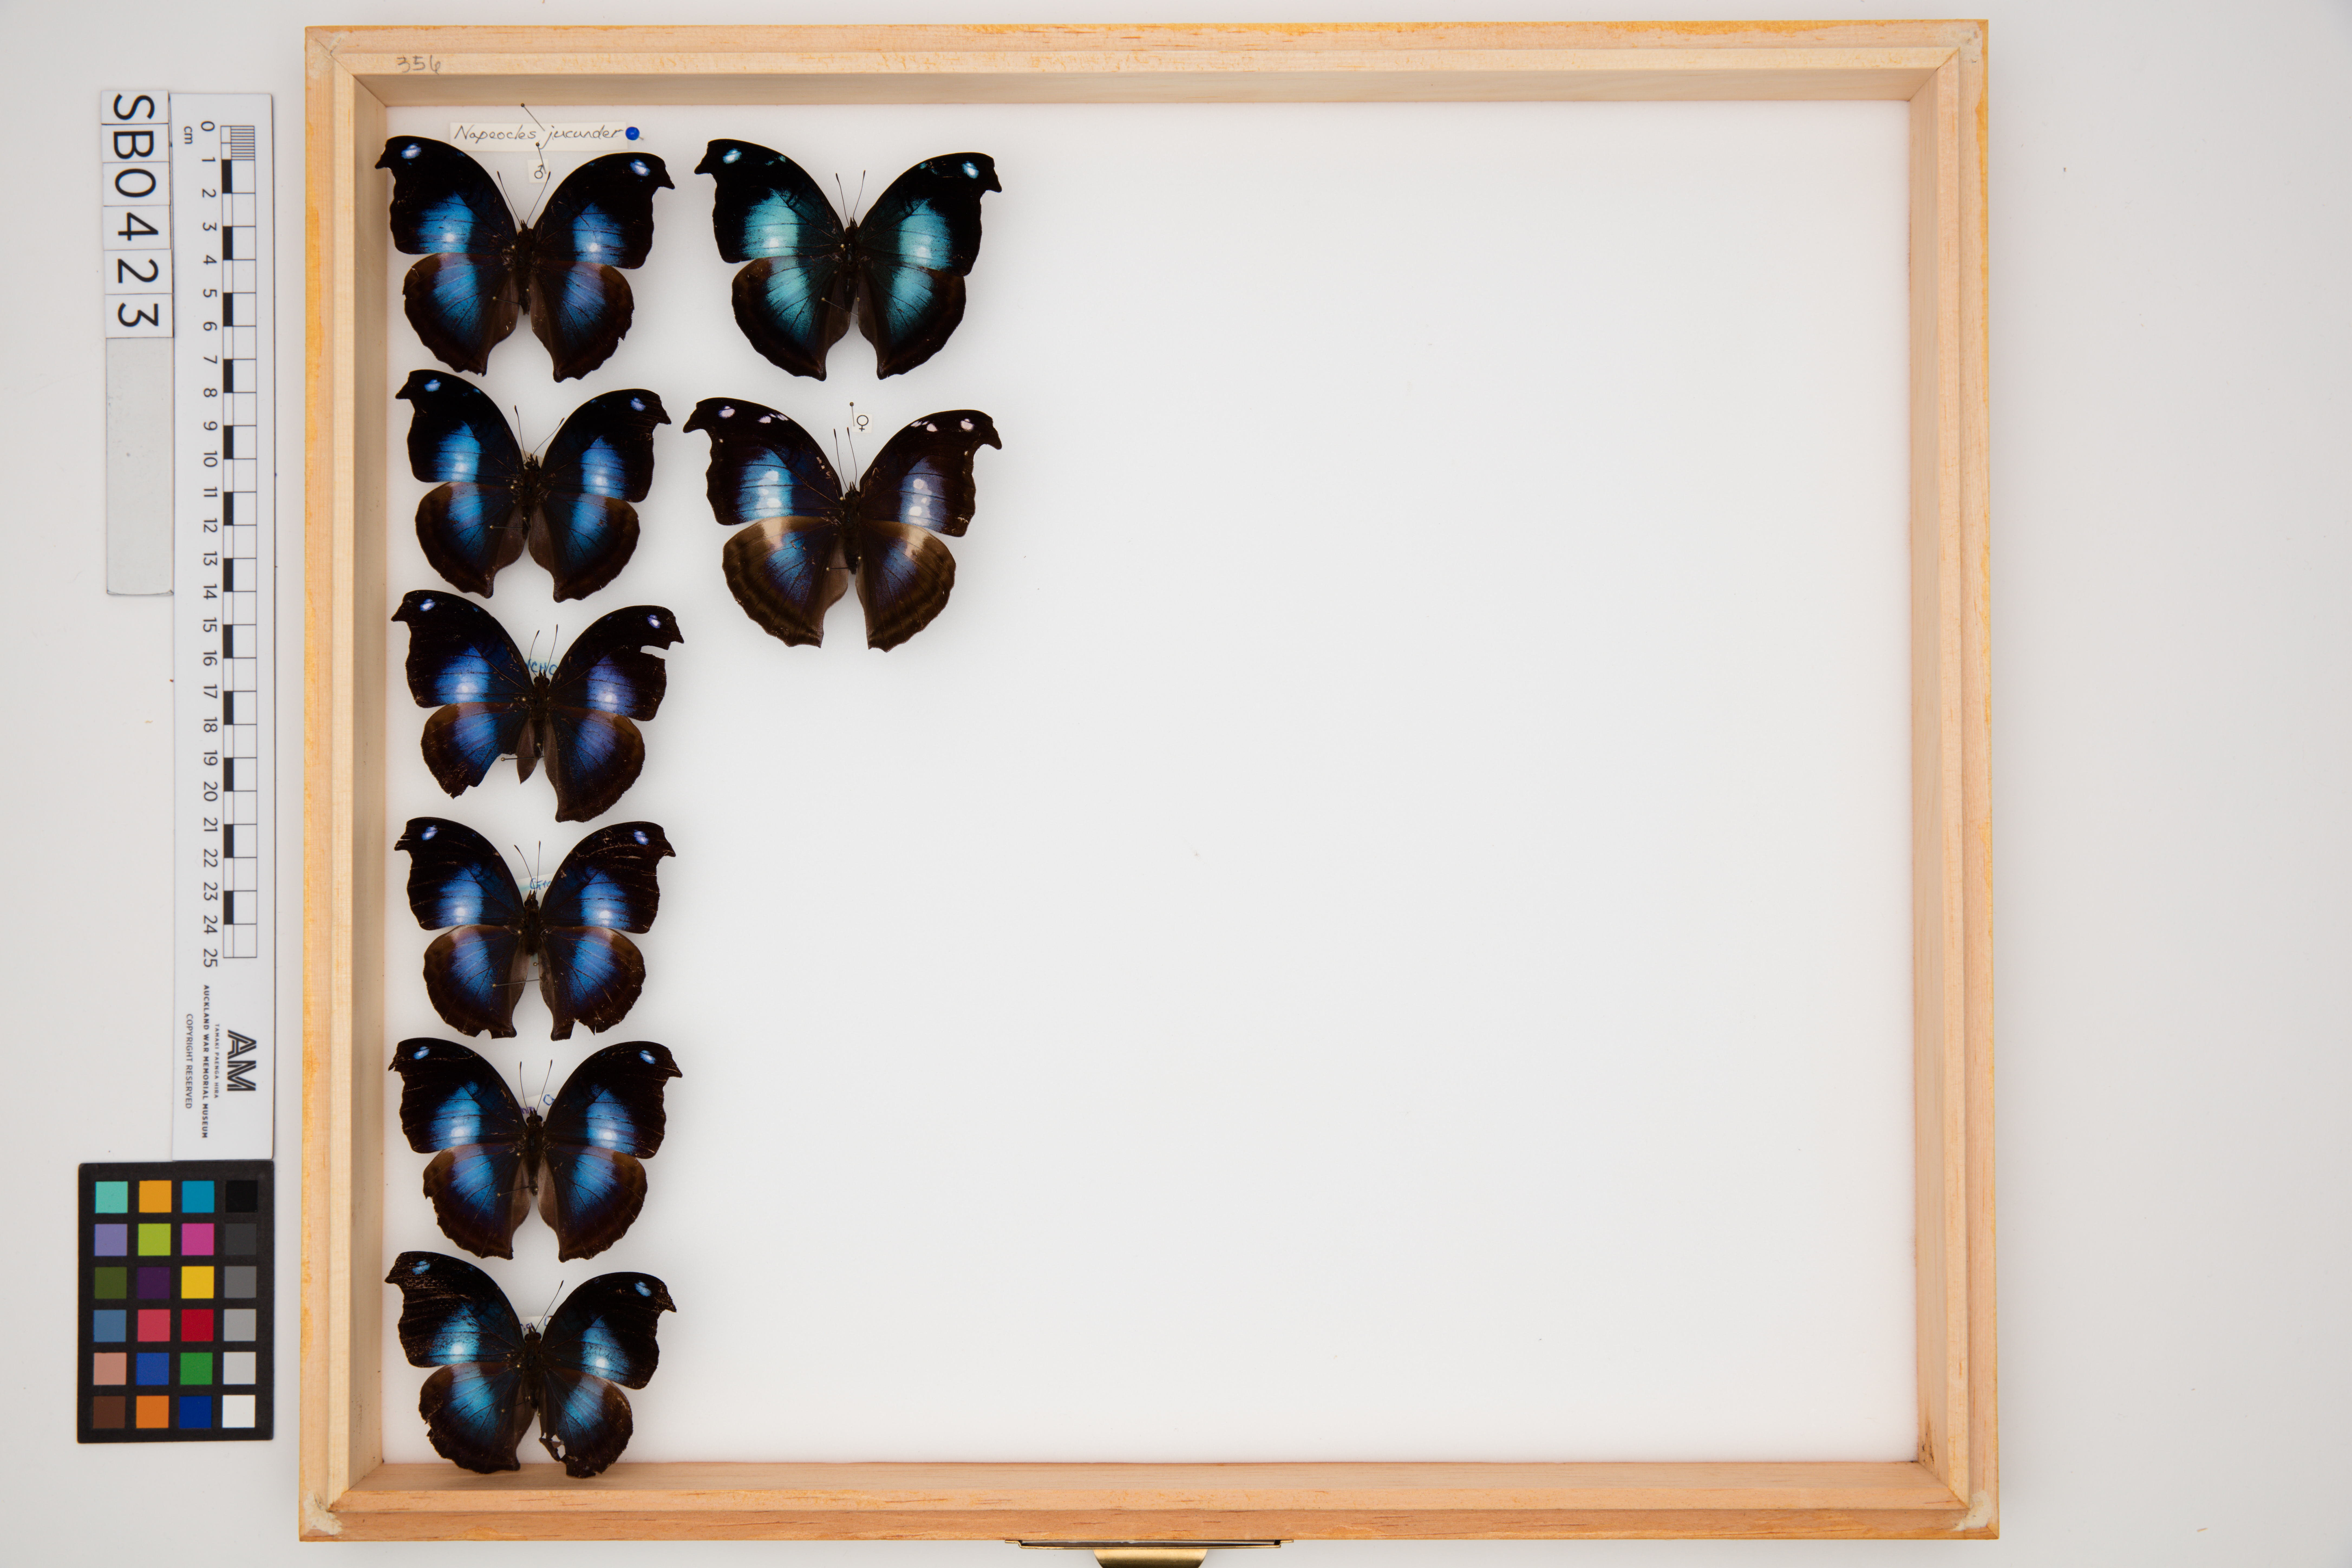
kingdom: Animalia
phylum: Arthropoda
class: Insecta
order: Lepidoptera
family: Nymphalidae
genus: Napeocles
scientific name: Napeocles jucunda
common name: Great blue hookwing
